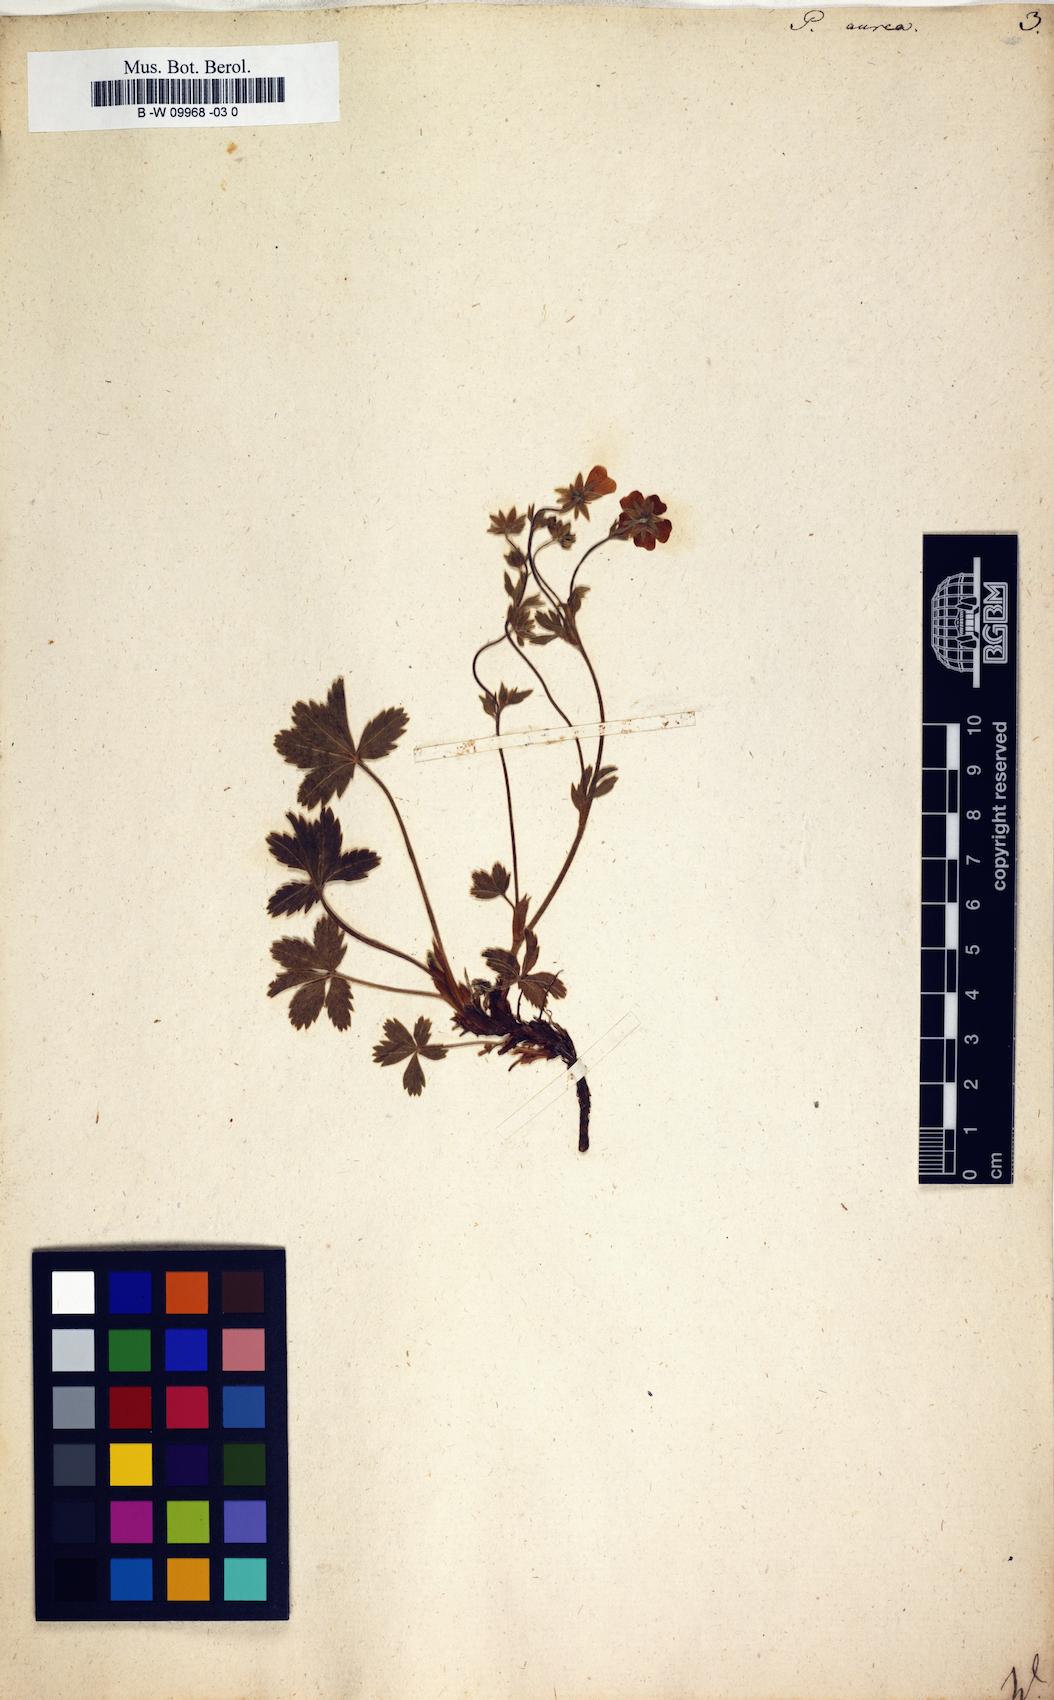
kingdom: Plantae
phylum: Tracheophyta
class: Magnoliopsida
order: Rosales
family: Rosaceae
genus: Potentilla
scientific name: Potentilla aurea
